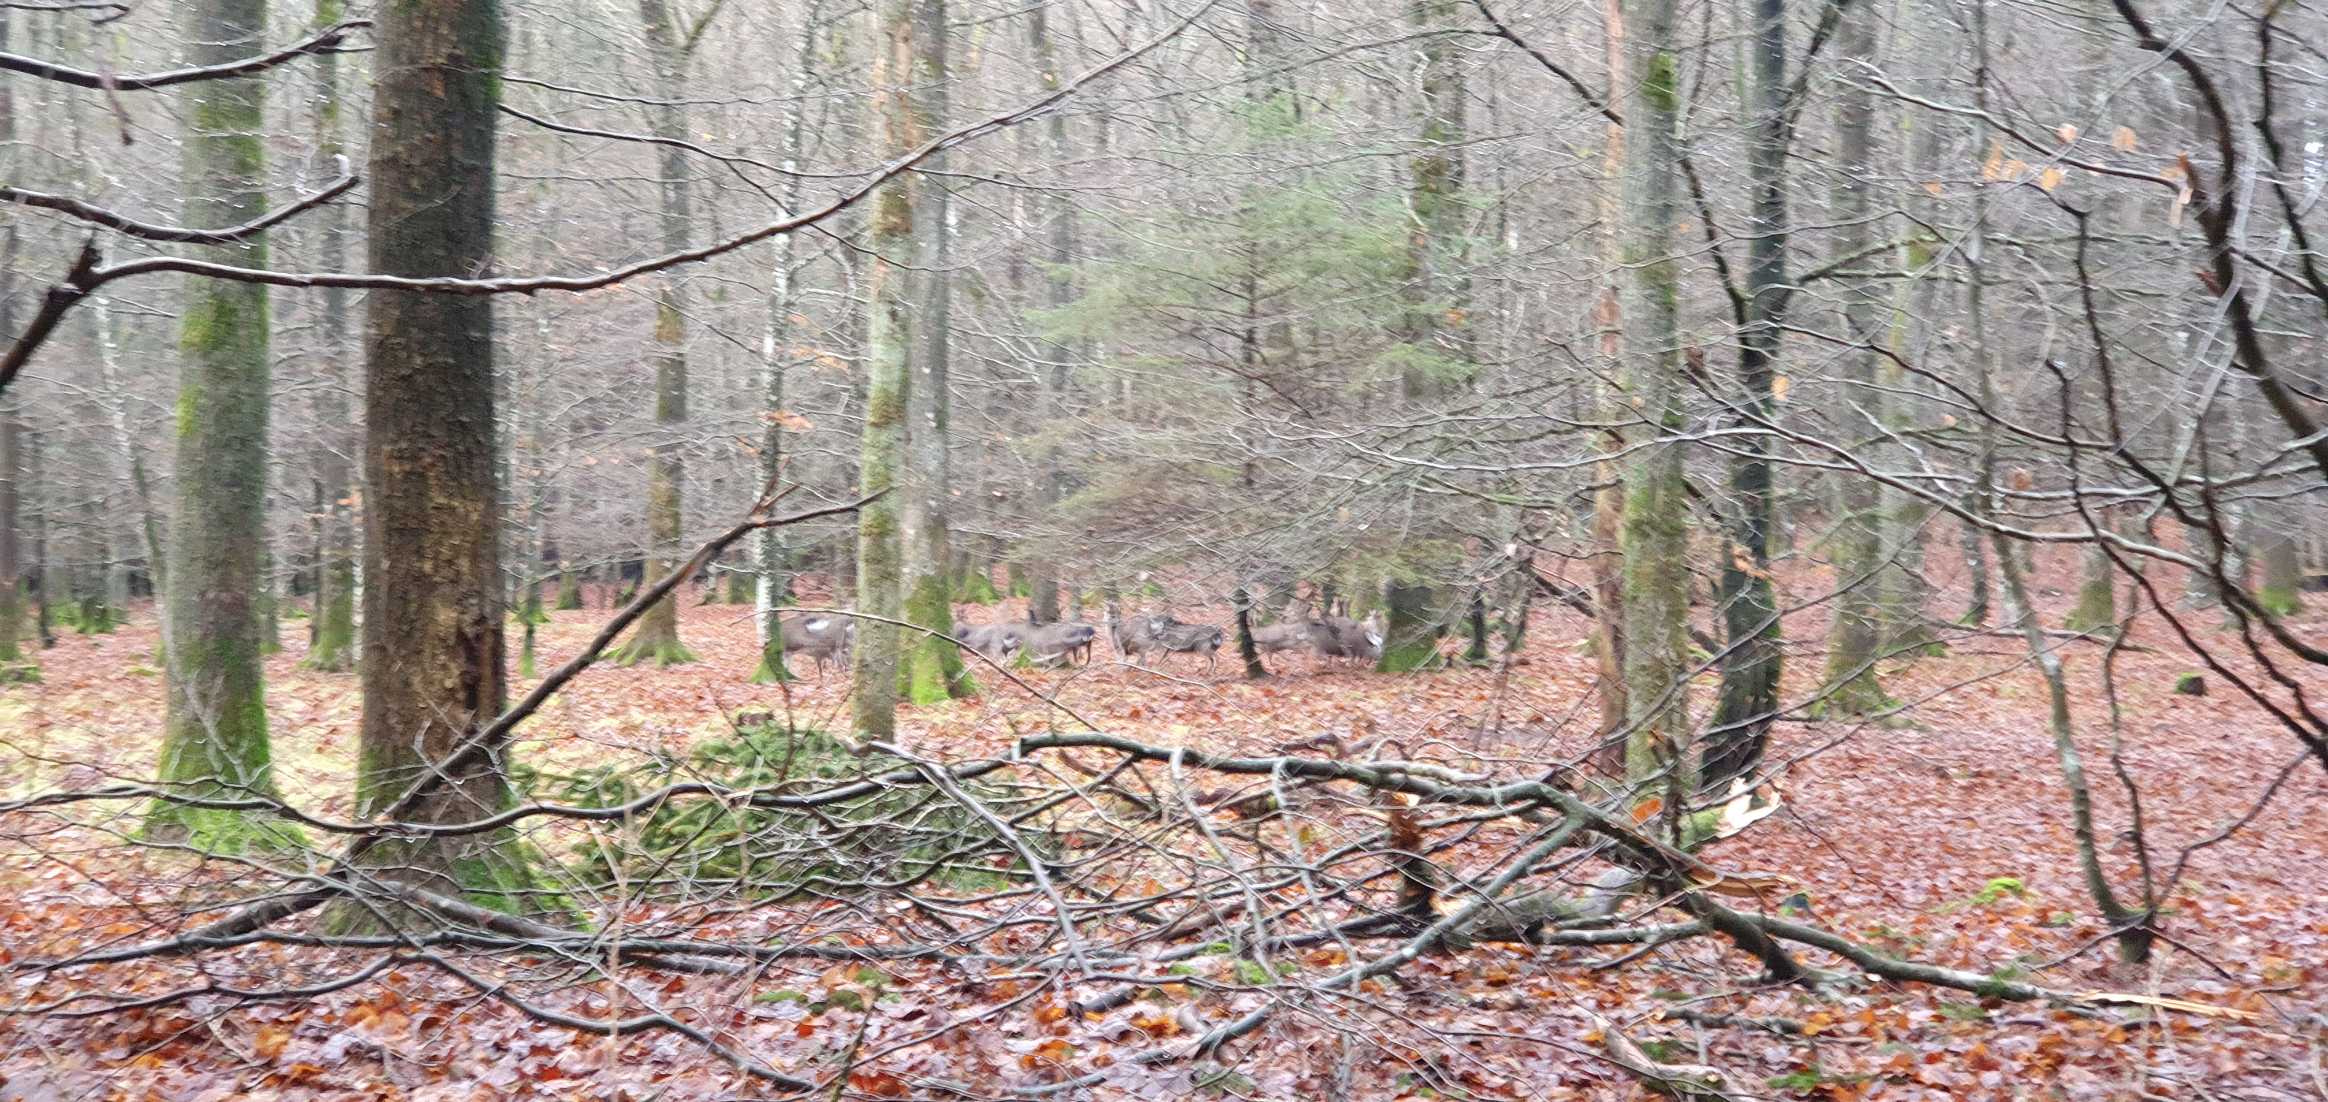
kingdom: Animalia
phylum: Chordata
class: Mammalia
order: Artiodactyla
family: Cervidae
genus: Cervus
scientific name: Cervus nippon
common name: Sika
